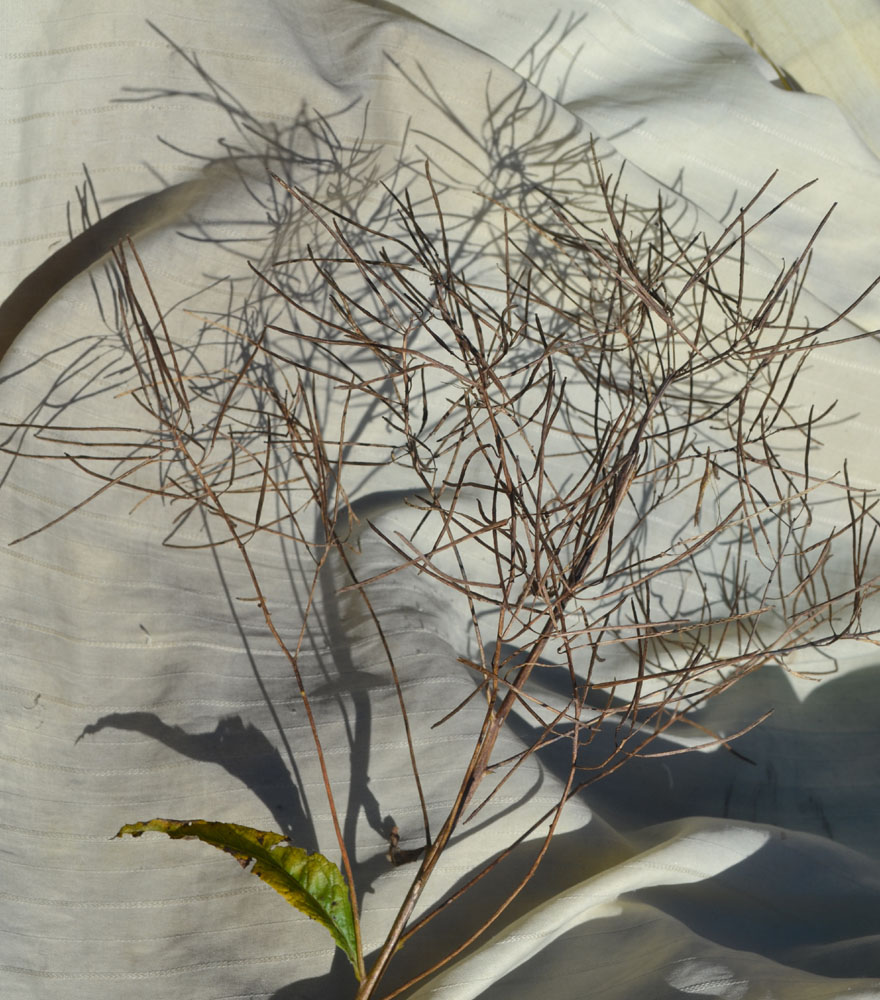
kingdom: Plantae
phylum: Tracheophyta
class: Magnoliopsida
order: Brassicales
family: Brassicaceae
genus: Sisymbrium
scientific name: Sisymbrium strictissimum
